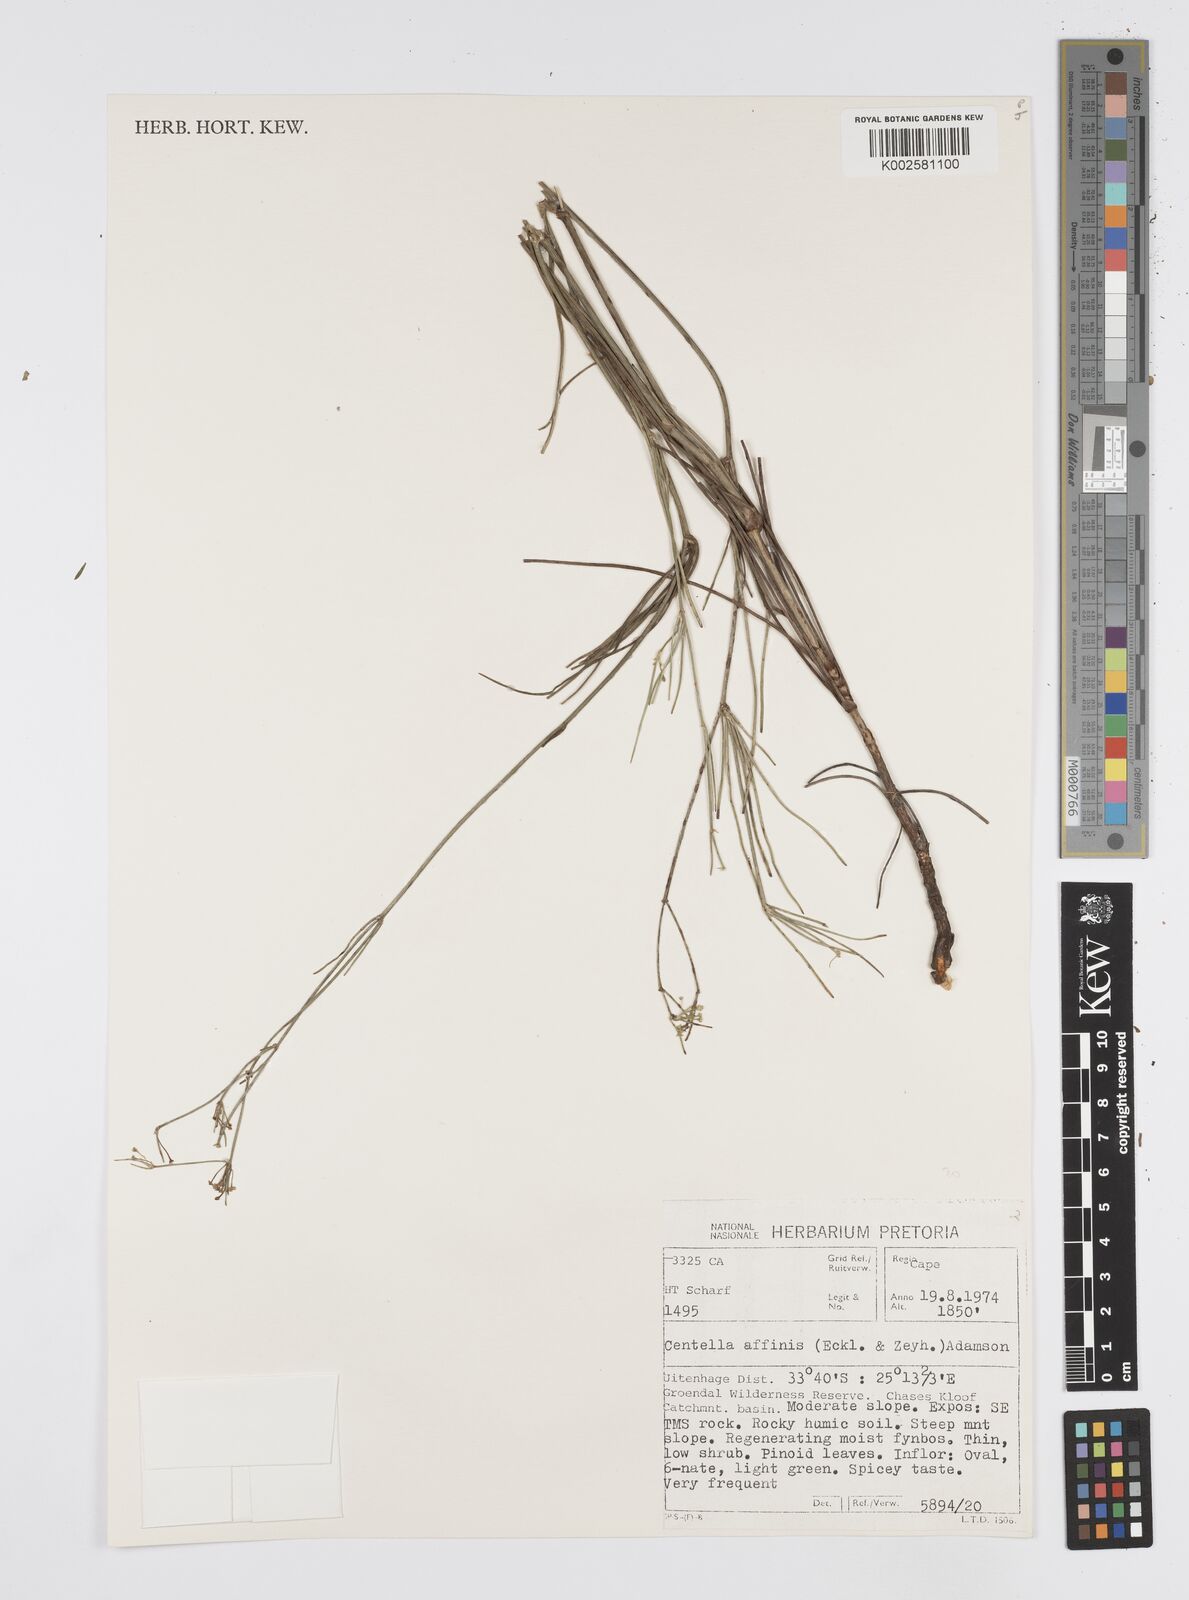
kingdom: Plantae
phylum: Tracheophyta
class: Magnoliopsida
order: Apiales
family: Apiaceae
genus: Centella
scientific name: Centella affinis
